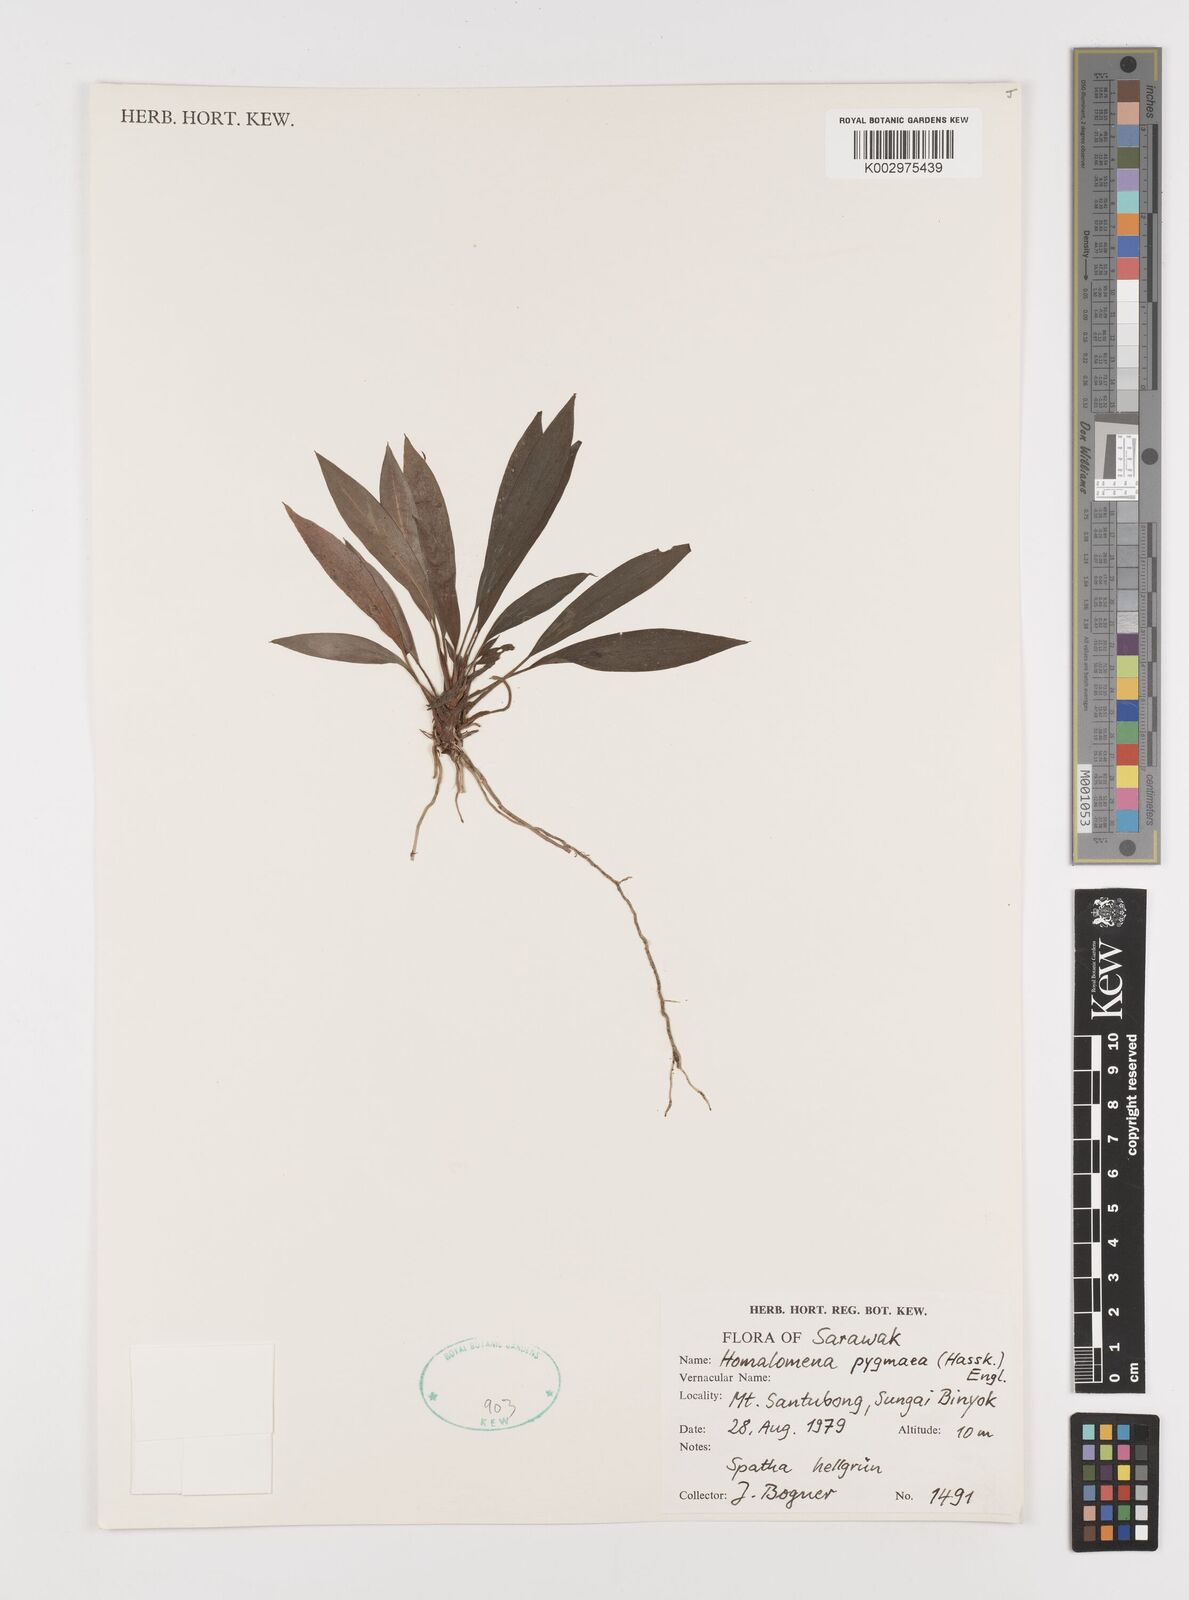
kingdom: Plantae
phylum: Tracheophyta
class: Liliopsida
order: Alismatales
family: Araceae
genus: Homalomena
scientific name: Homalomena humilis
